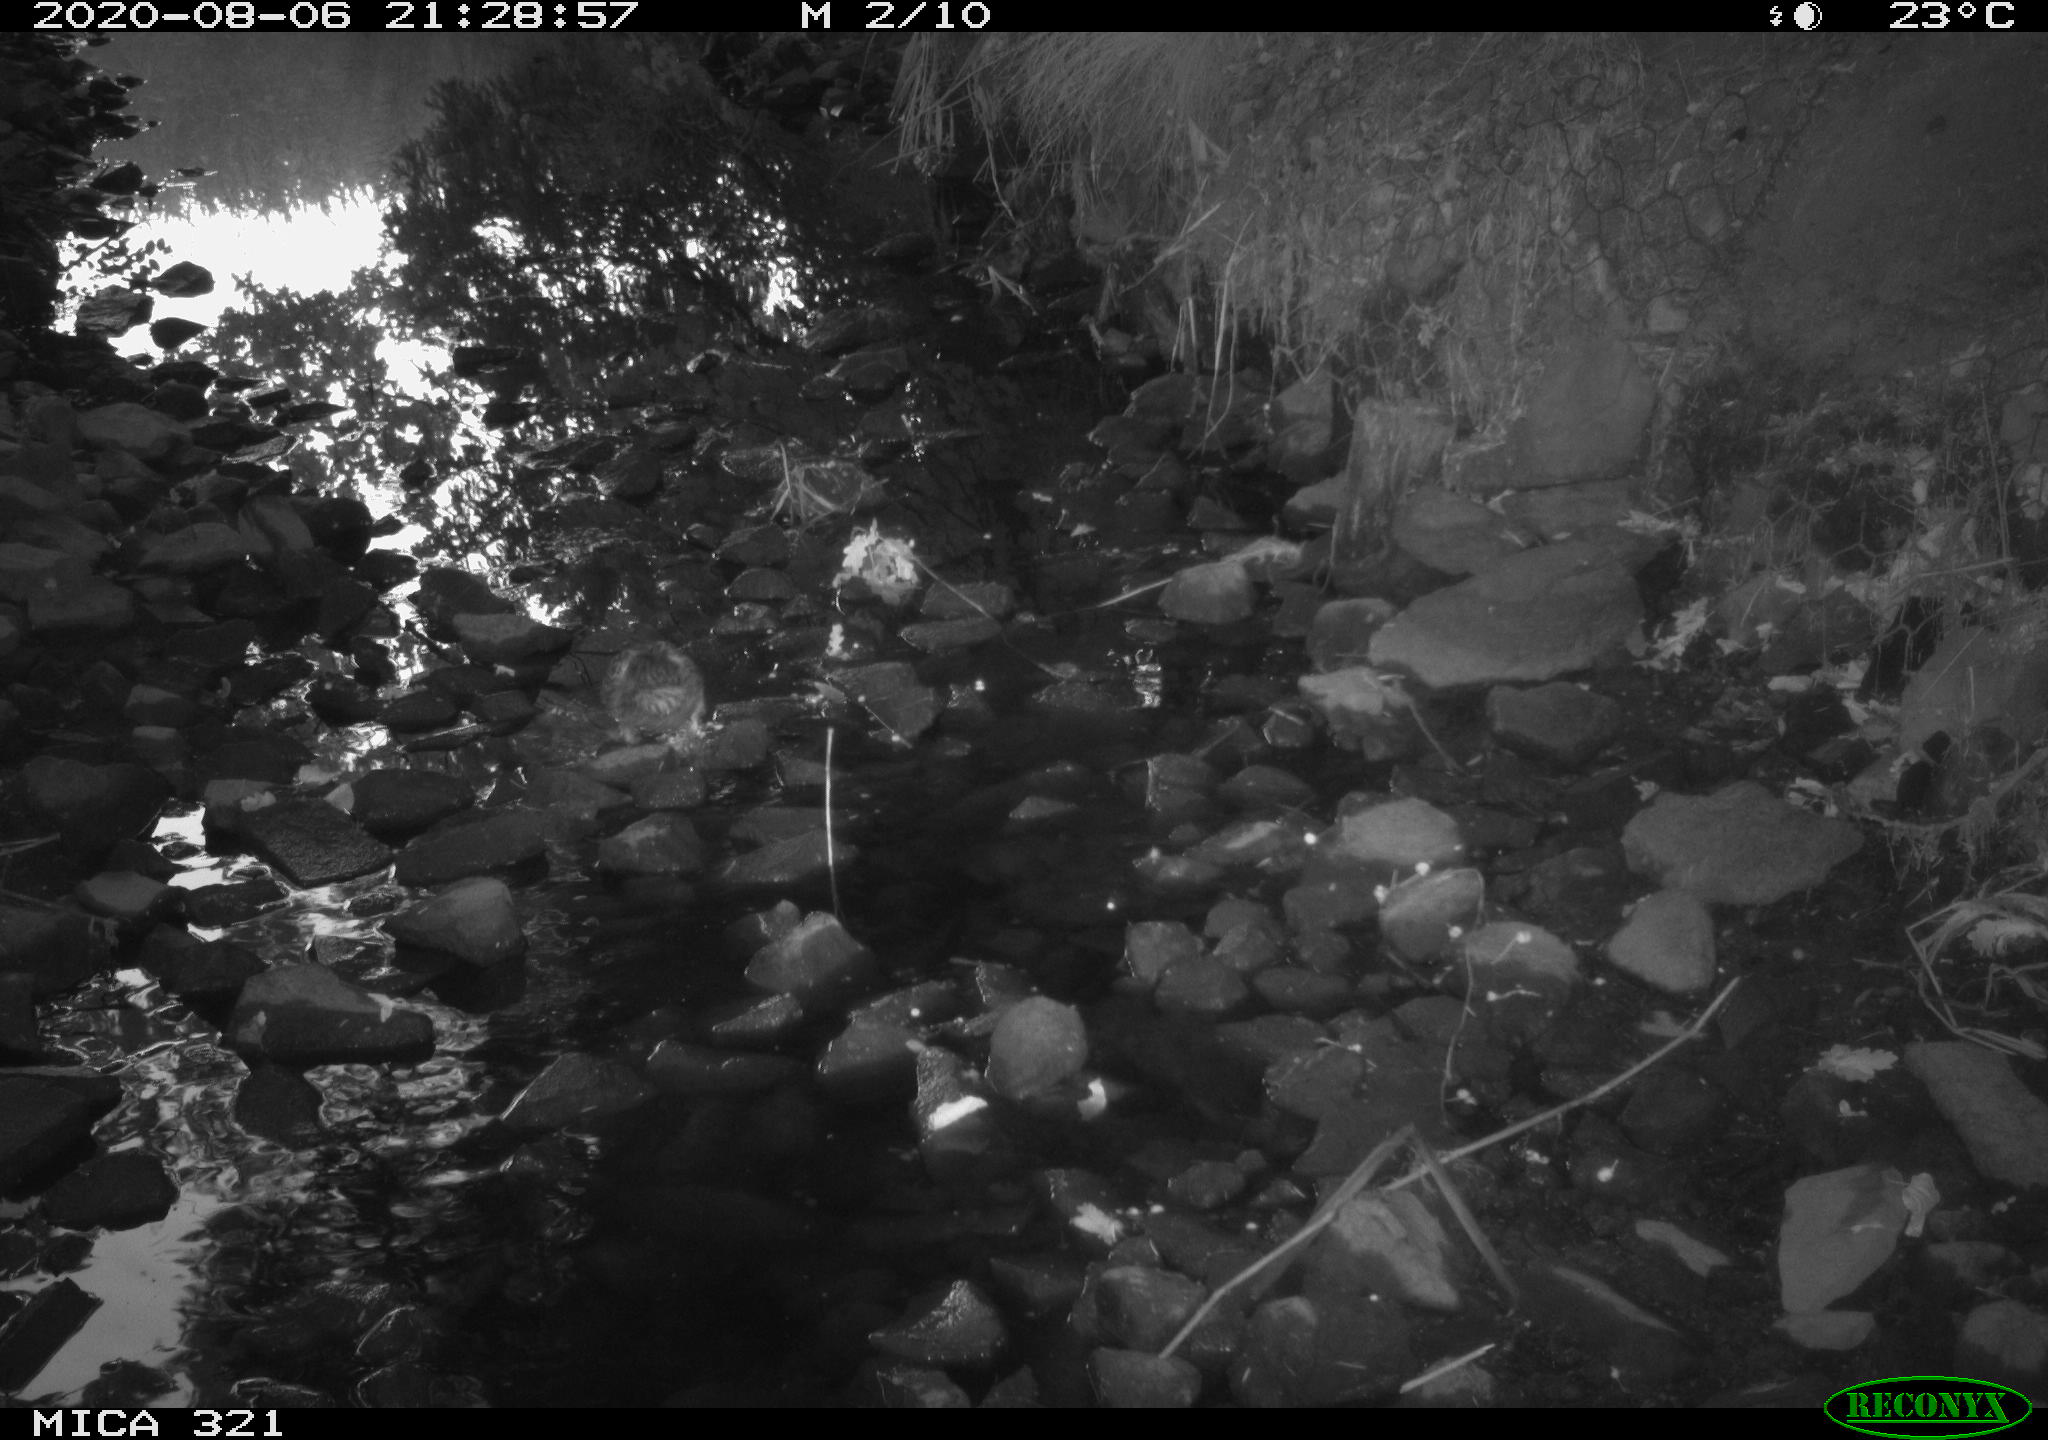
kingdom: Animalia
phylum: Chordata
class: Aves
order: Anseriformes
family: Anatidae
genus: Anas
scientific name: Anas platyrhynchos
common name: Mallard
